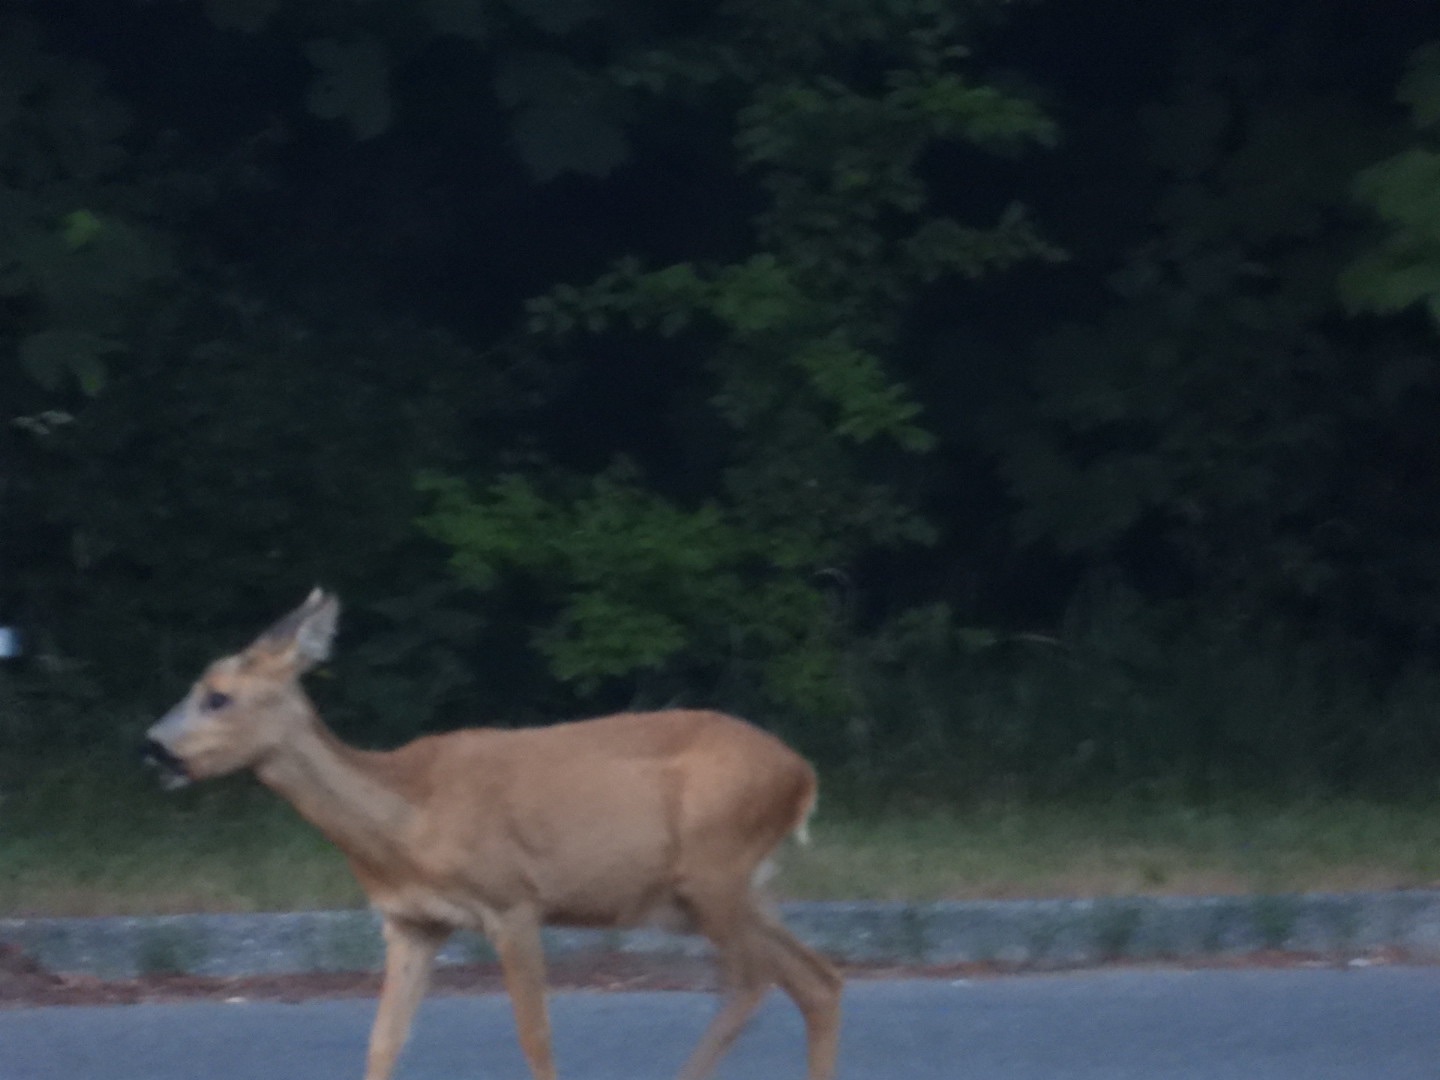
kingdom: Animalia
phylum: Chordata
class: Mammalia
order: Artiodactyla
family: Cervidae
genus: Capreolus
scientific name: Capreolus capreolus
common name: Rådyr
